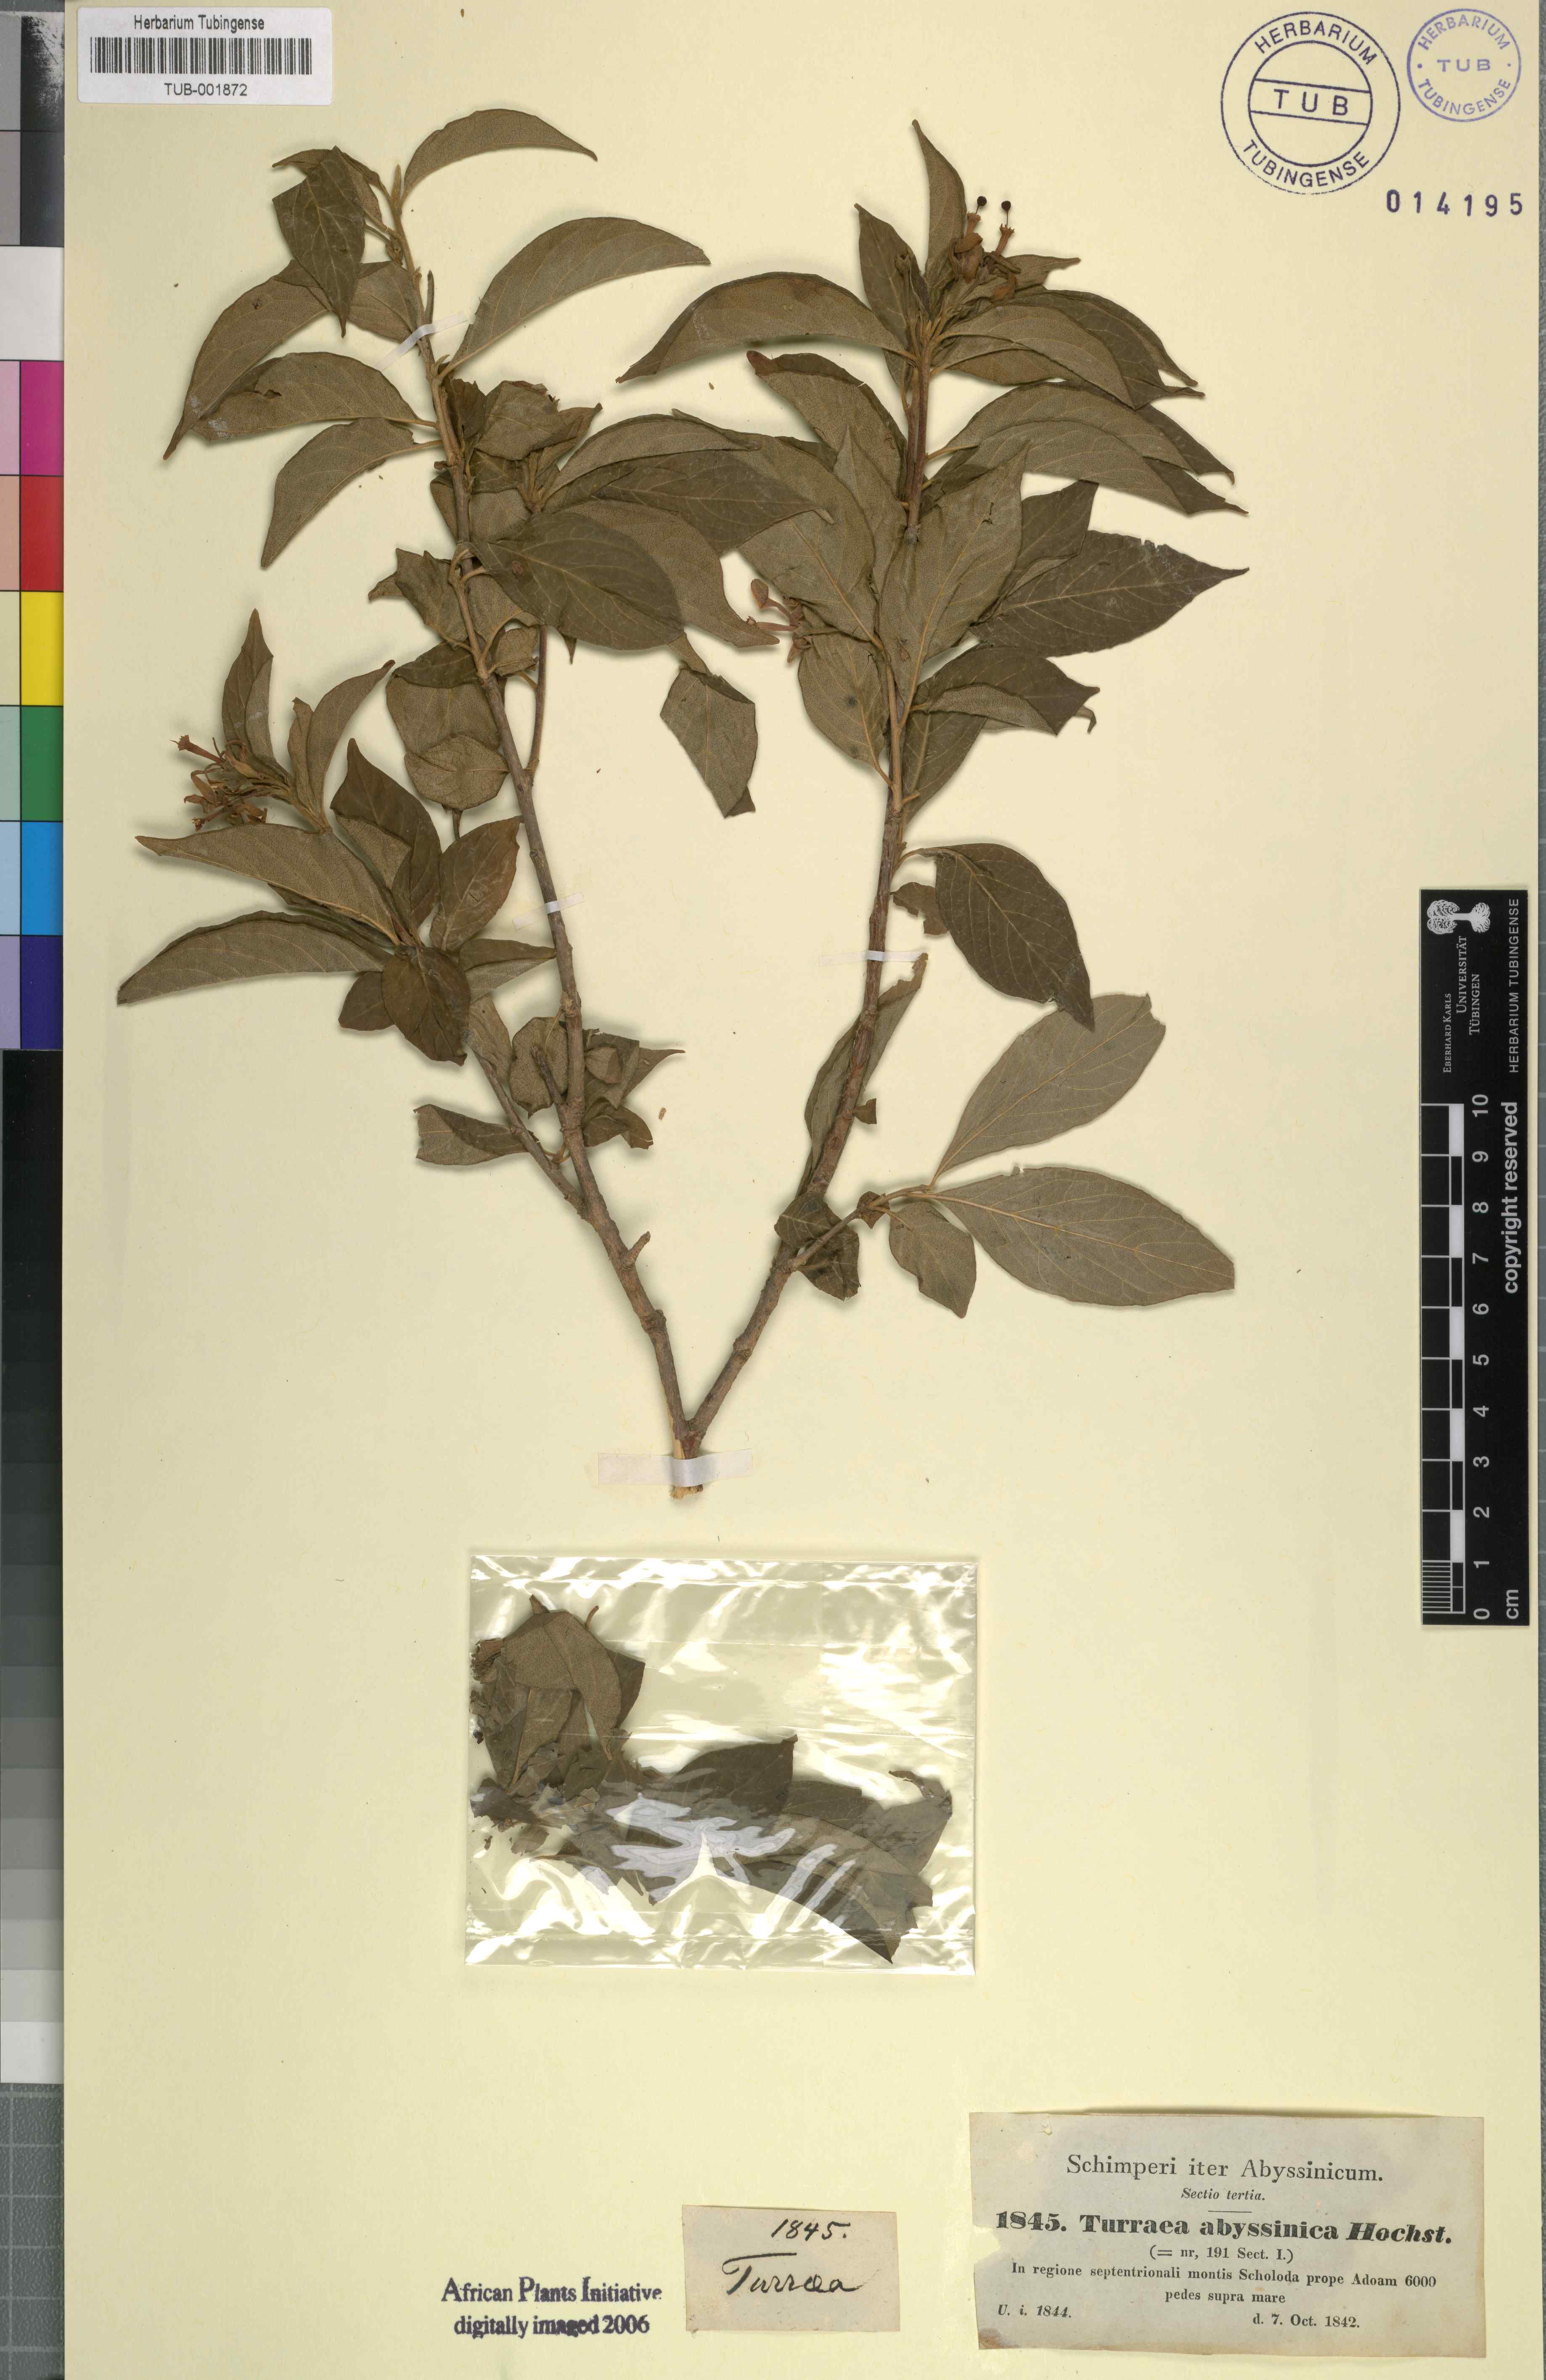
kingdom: Plantae
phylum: Tracheophyta
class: Magnoliopsida
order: Sapindales
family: Meliaceae
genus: Turraea
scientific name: Turraea abyssinica
